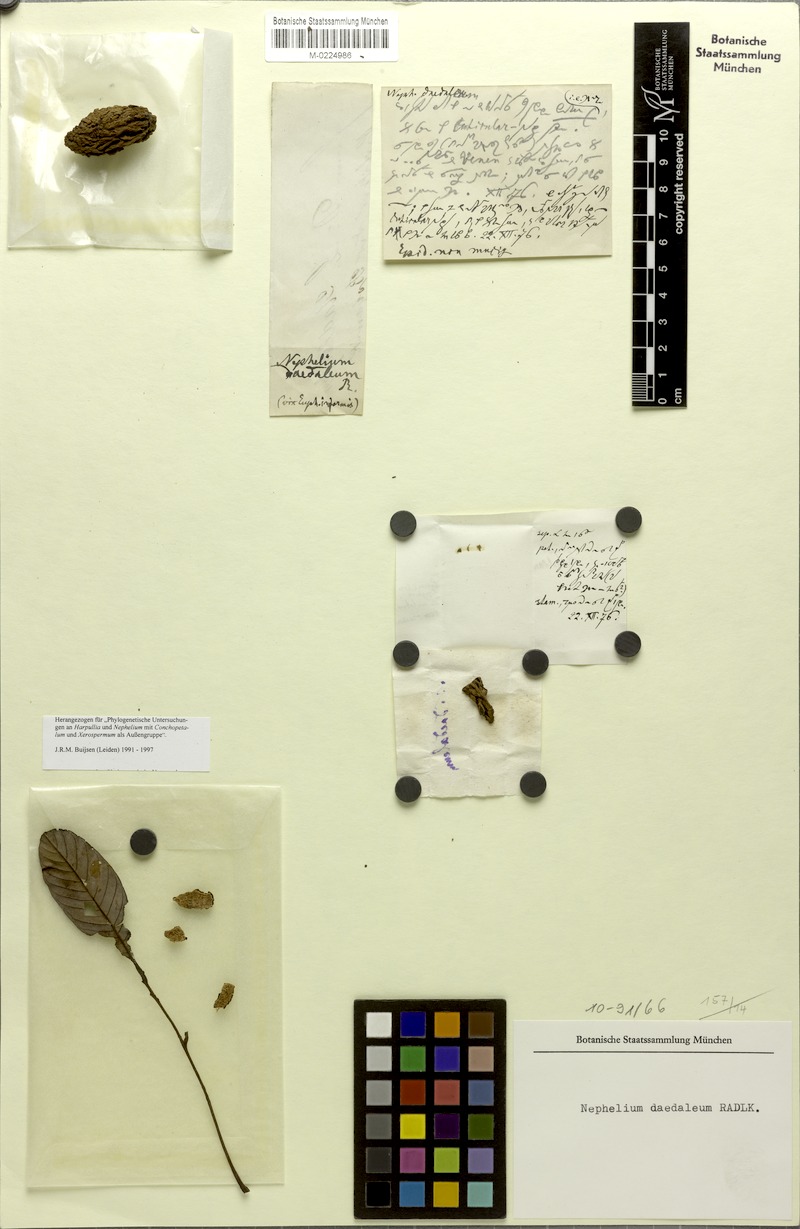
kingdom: Plantae
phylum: Tracheophyta
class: Magnoliopsida
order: Sapindales
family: Sapindaceae
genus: Nephelium
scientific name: Nephelium daedaleum
